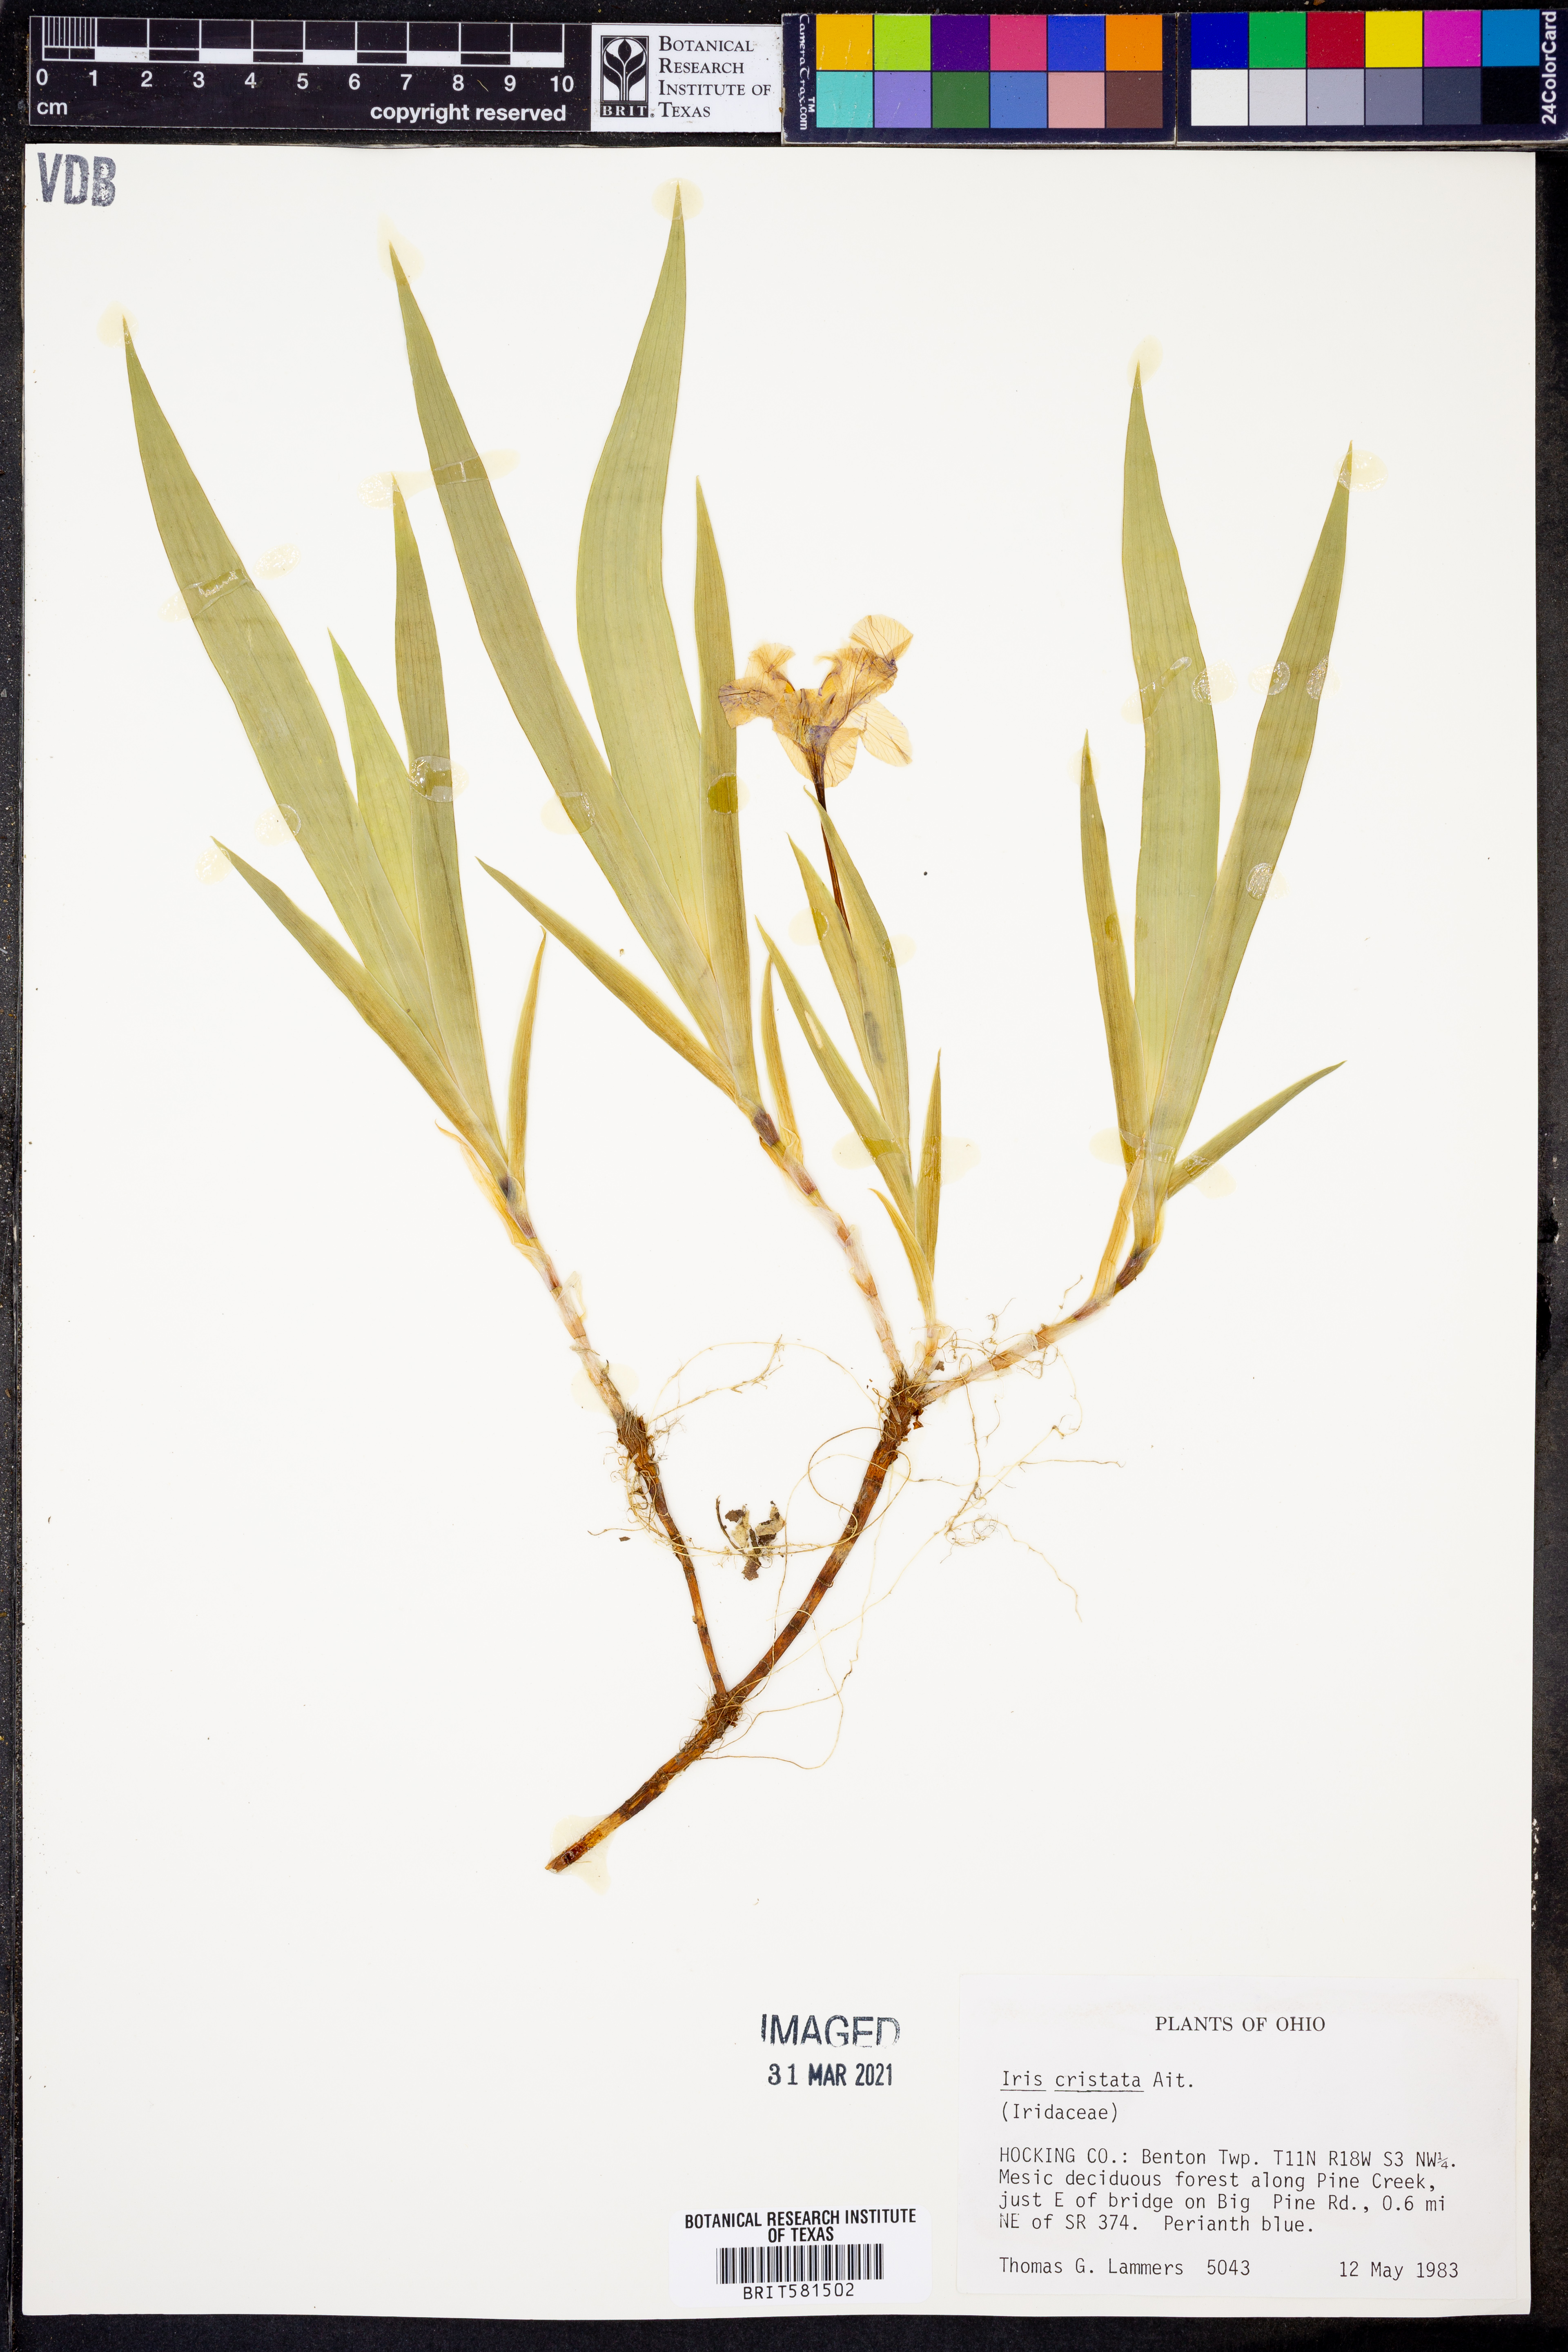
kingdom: Plantae
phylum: Tracheophyta
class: Liliopsida
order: Asparagales
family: Iridaceae
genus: Iris
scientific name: Iris cristata
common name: Crested iris
